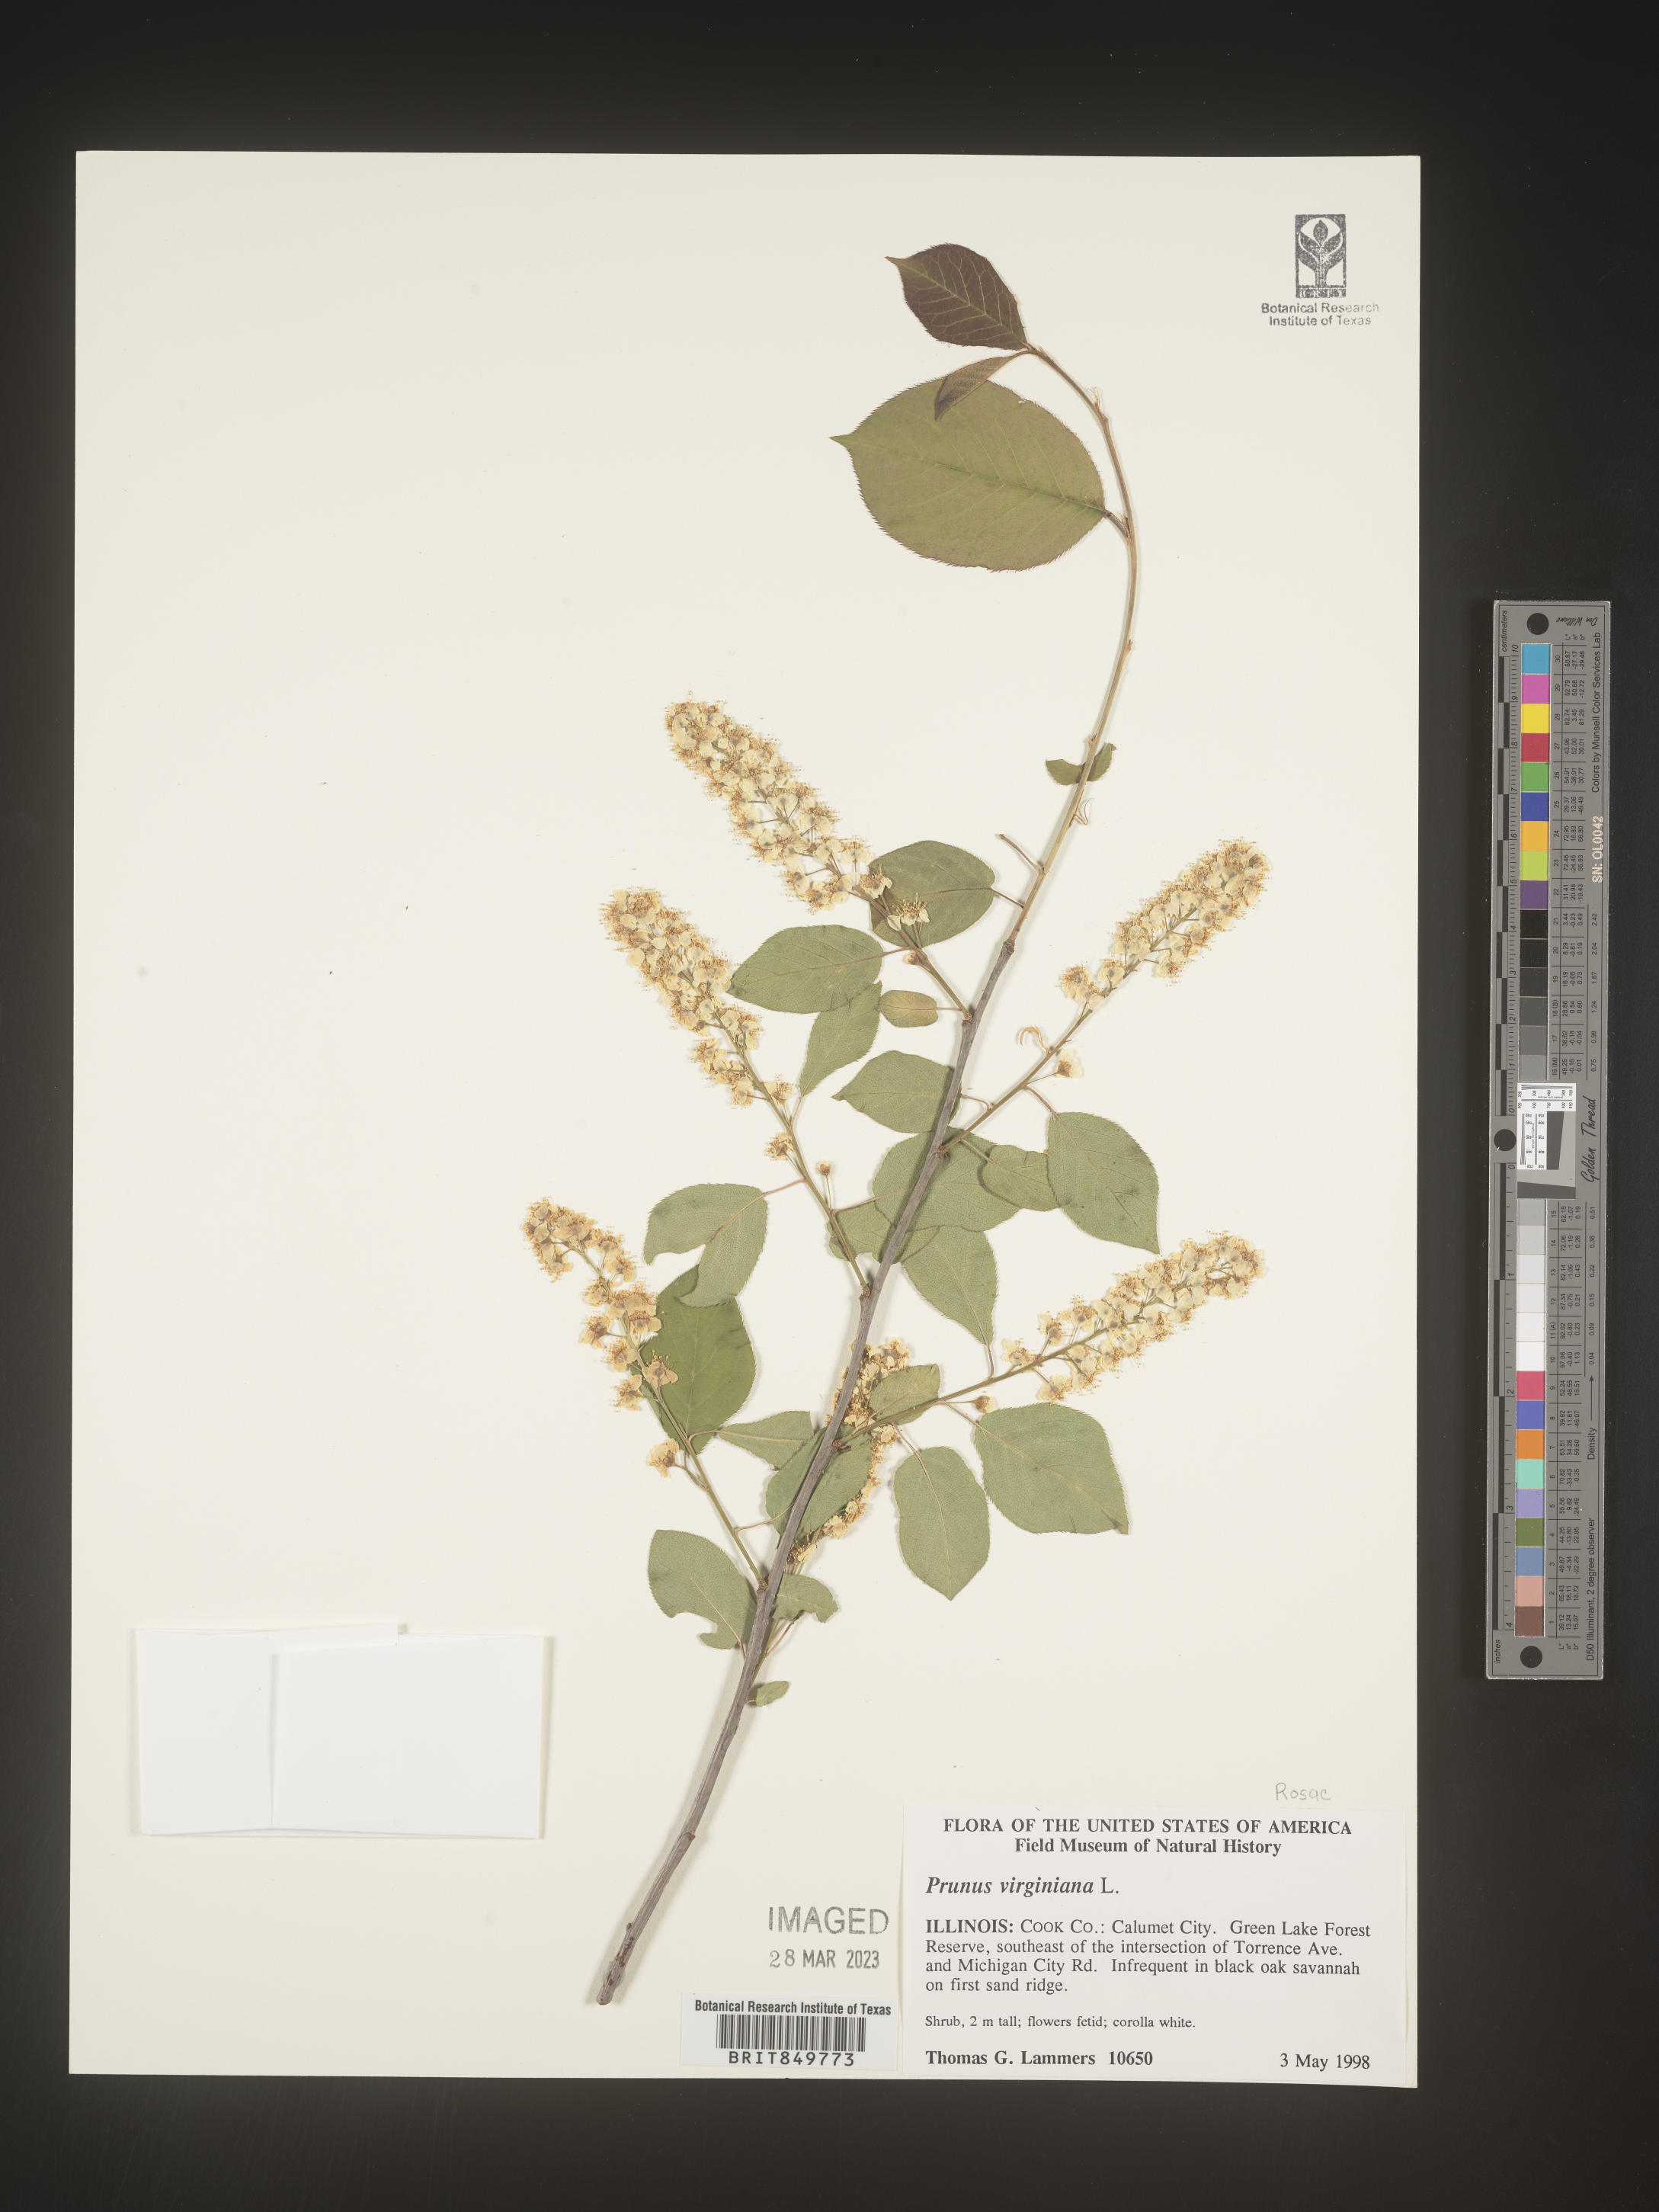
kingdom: Plantae
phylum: Tracheophyta
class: Magnoliopsida
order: Rosales
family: Rosaceae
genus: Prunus
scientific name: Prunus virginiana
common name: Chokecherry
